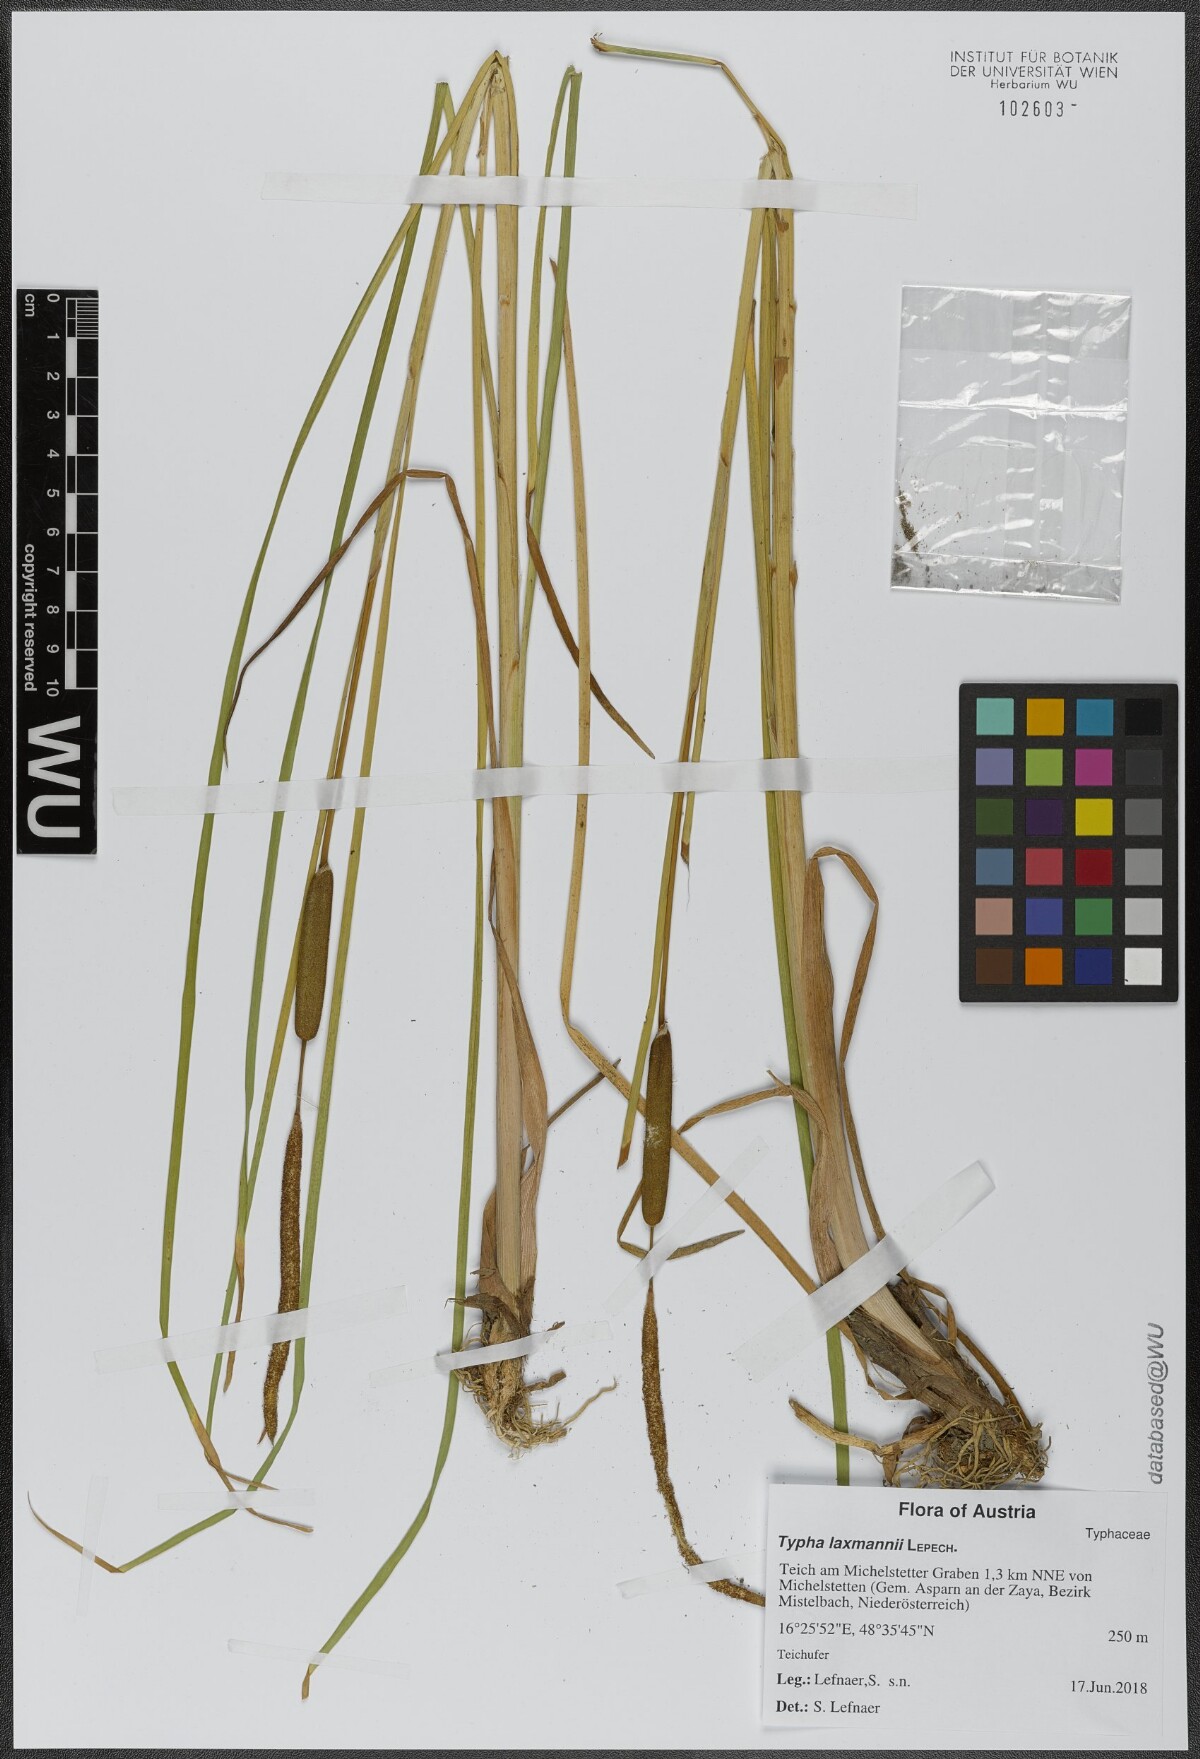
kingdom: Plantae
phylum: Tracheophyta
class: Liliopsida
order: Poales
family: Typhaceae
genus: Typha
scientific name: Typha laxmannii
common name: Laxman’s bulrush
